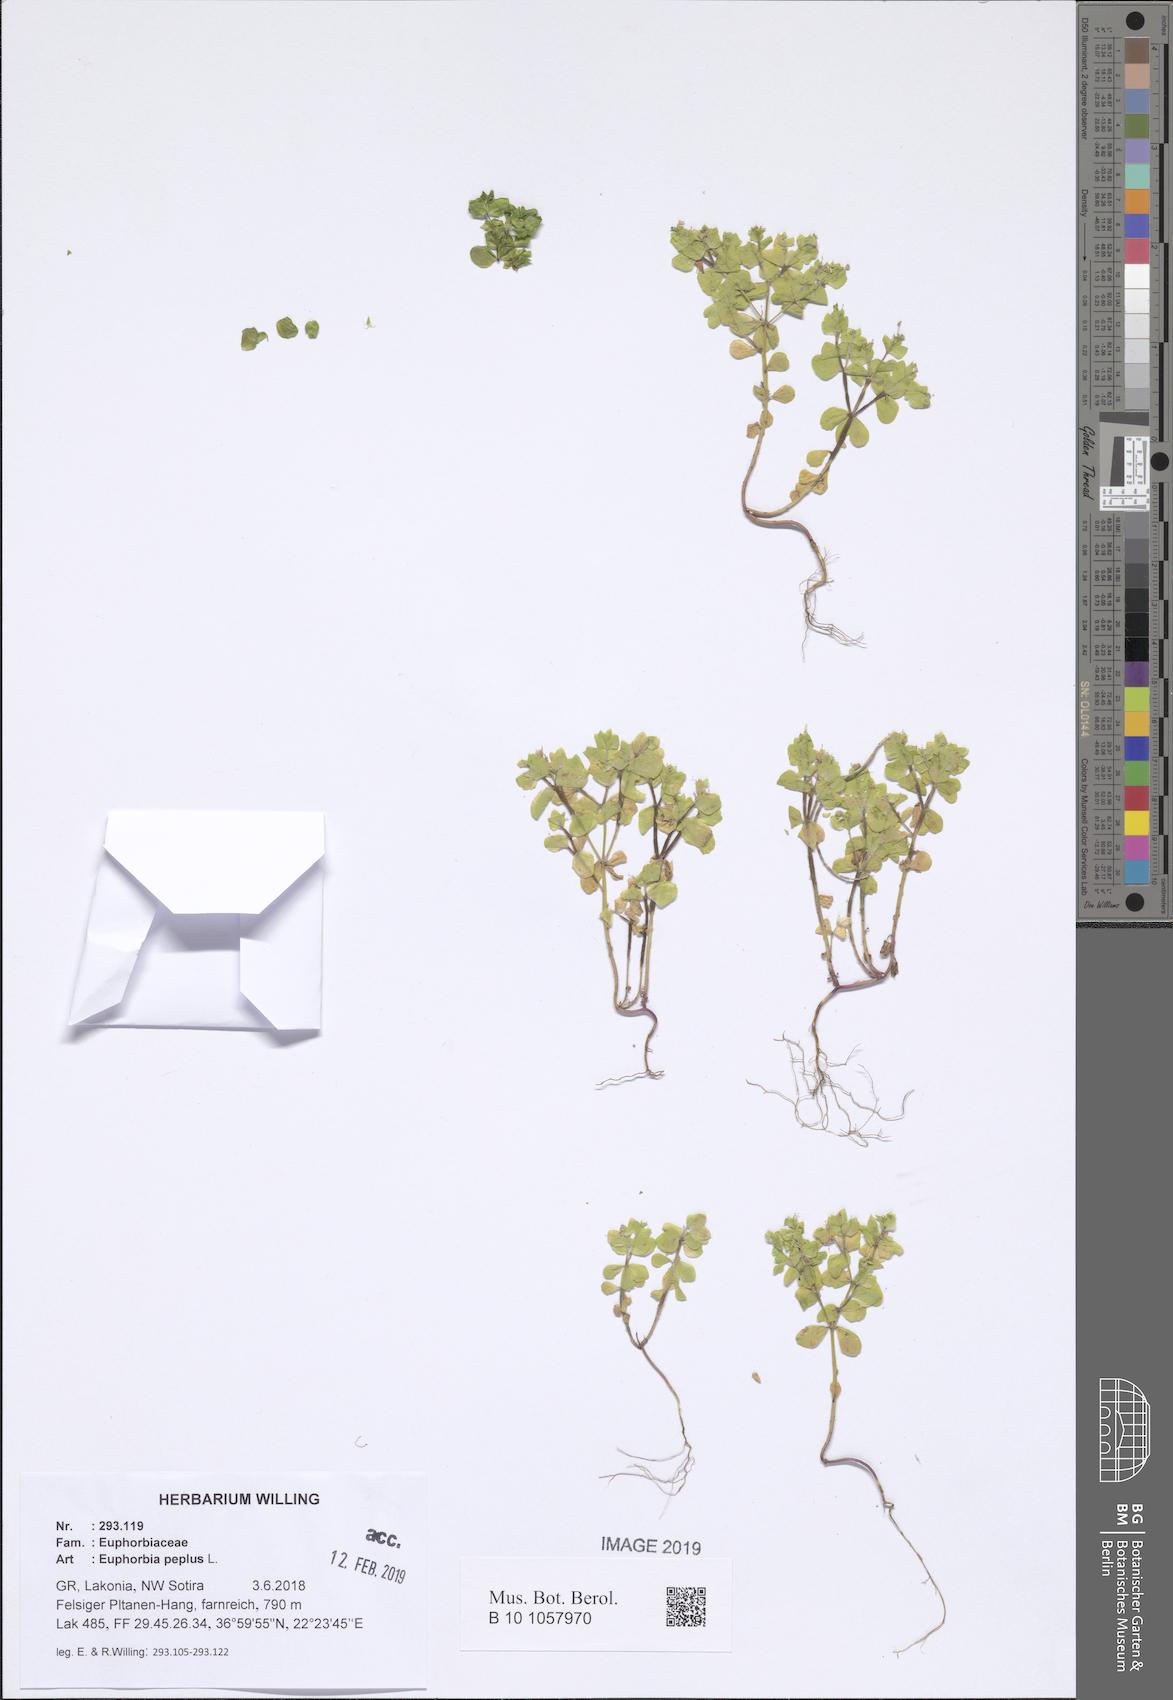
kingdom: Plantae
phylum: Tracheophyta
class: Magnoliopsida
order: Malpighiales
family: Euphorbiaceae
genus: Euphorbia
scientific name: Euphorbia peplus
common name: Petty spurge
